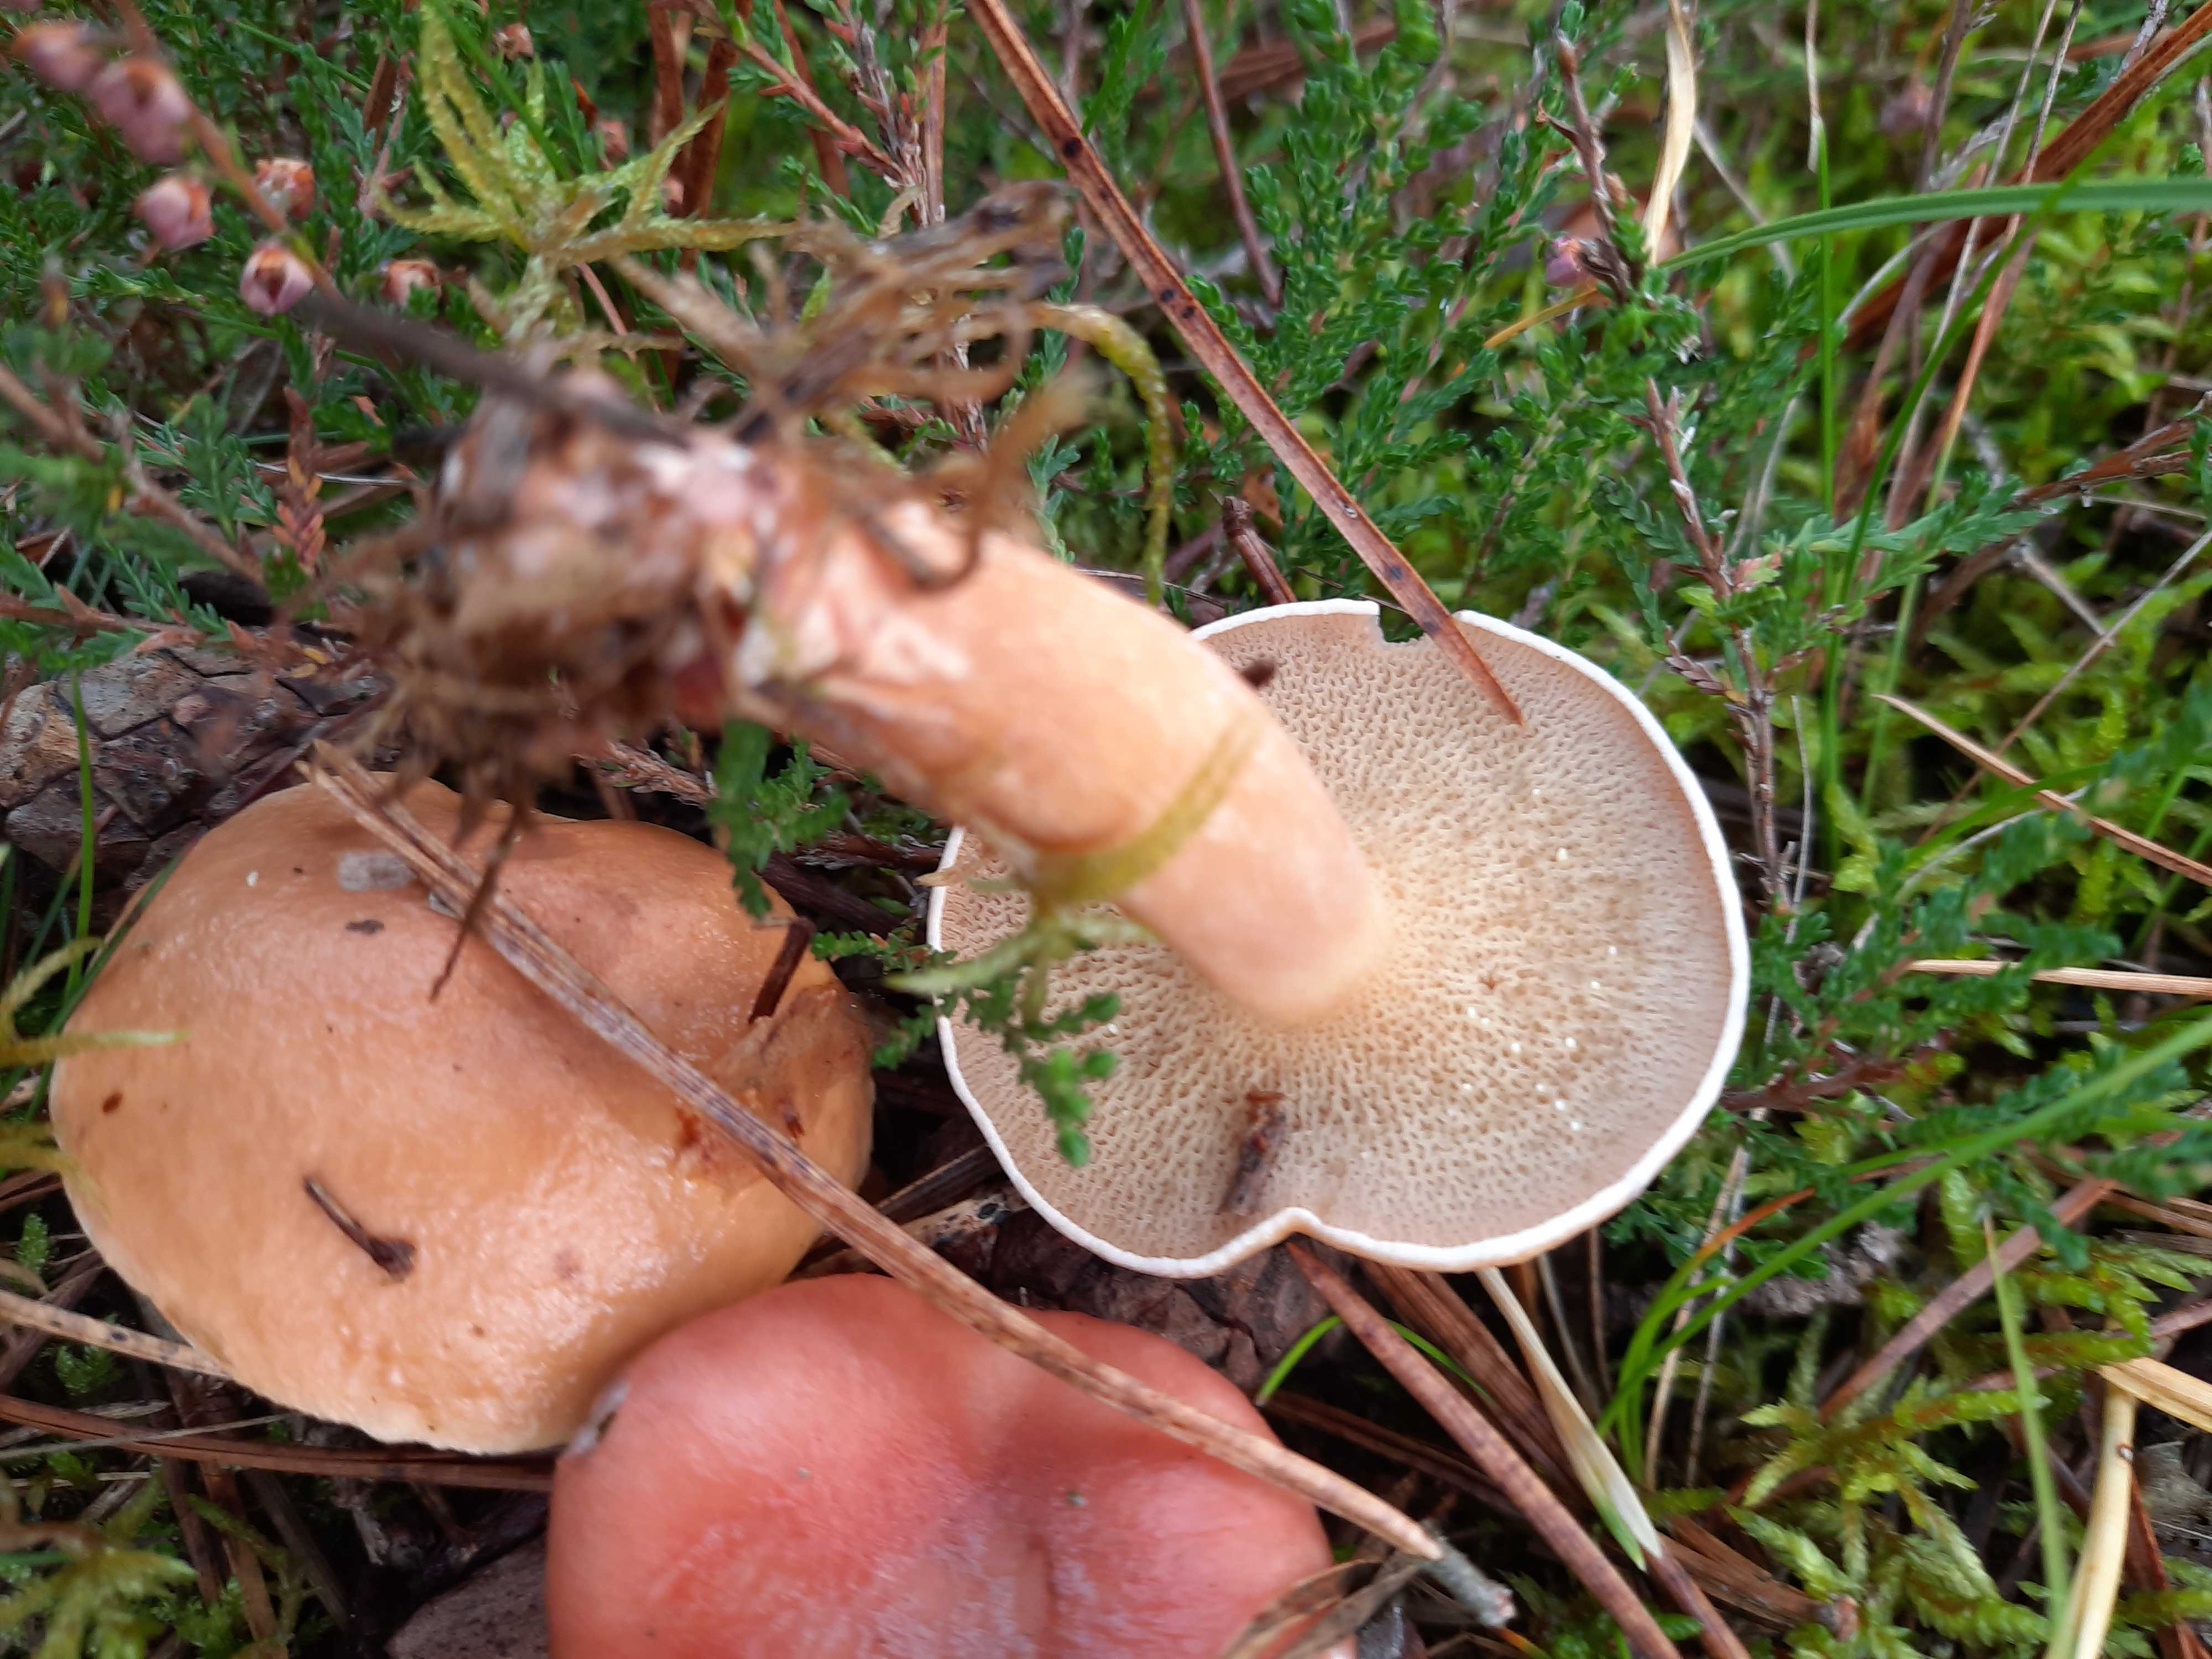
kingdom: Fungi
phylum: Basidiomycota
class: Agaricomycetes
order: Boletales
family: Suillaceae
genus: Suillus
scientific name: Suillus bovinus
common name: grovporet slimrørhat
